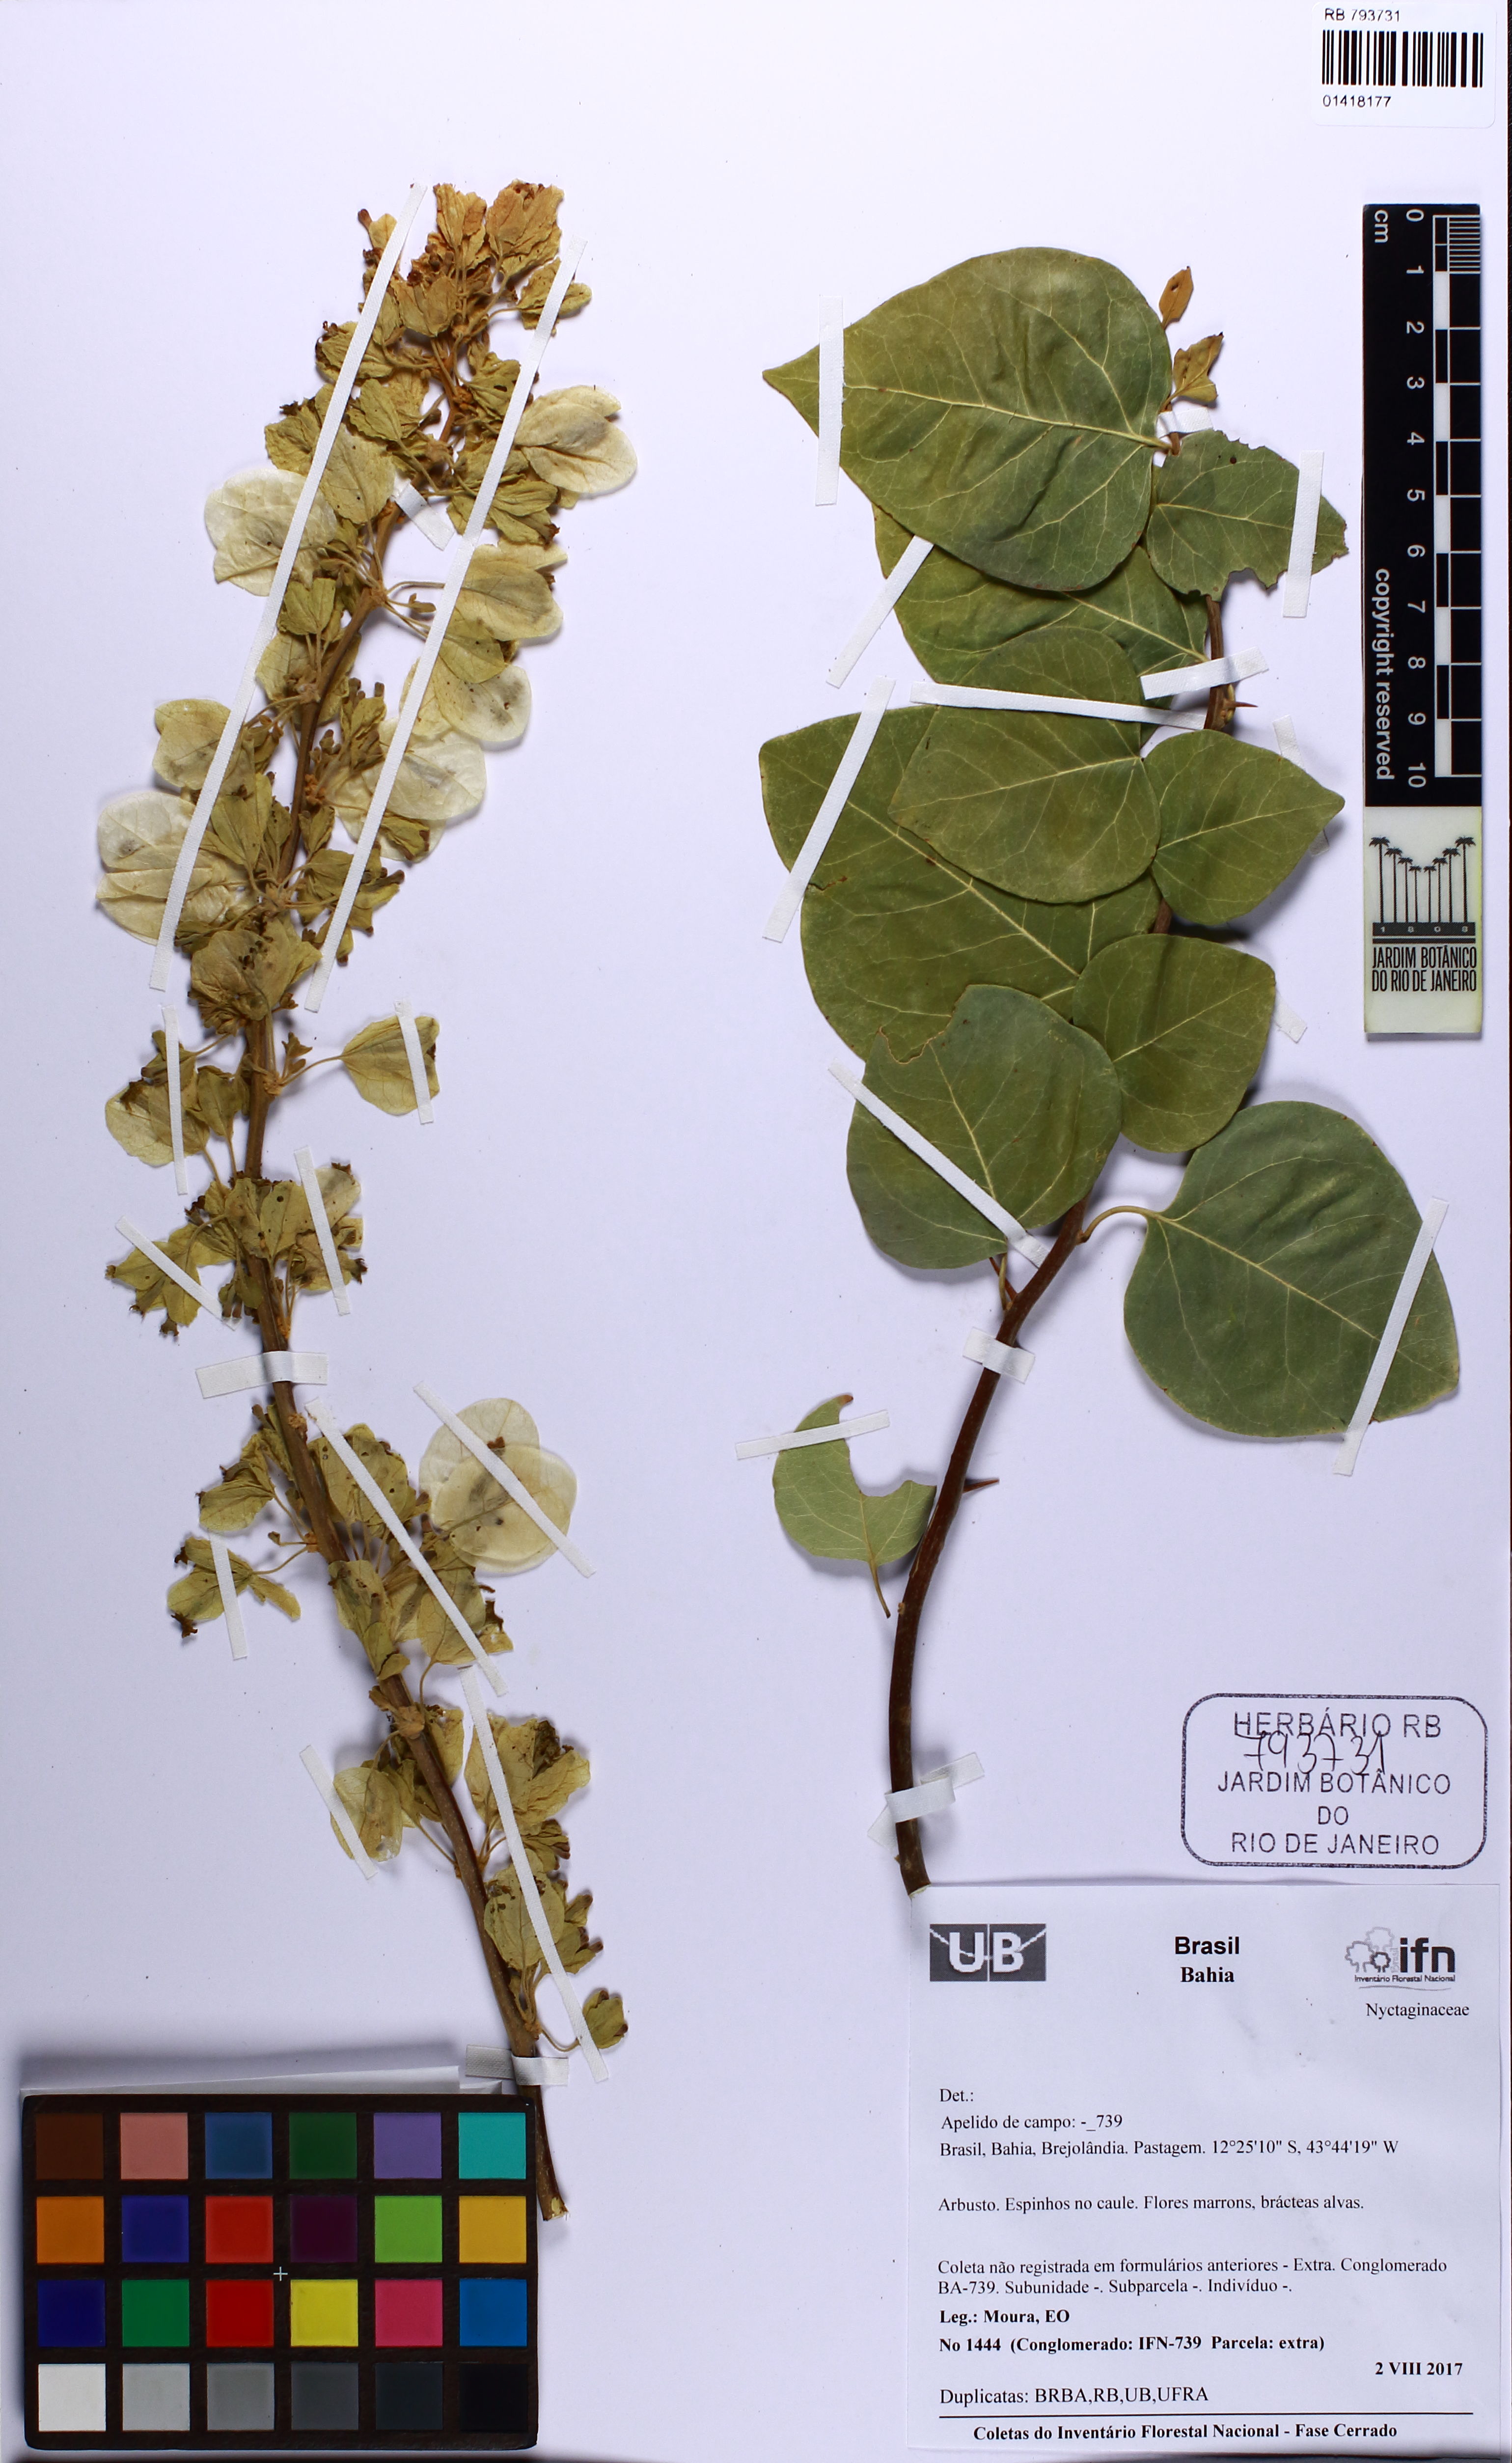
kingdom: Plantae
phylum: Tracheophyta
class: Magnoliopsida
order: Caryophyllales
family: Nyctaginaceae
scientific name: Nyctaginaceae
